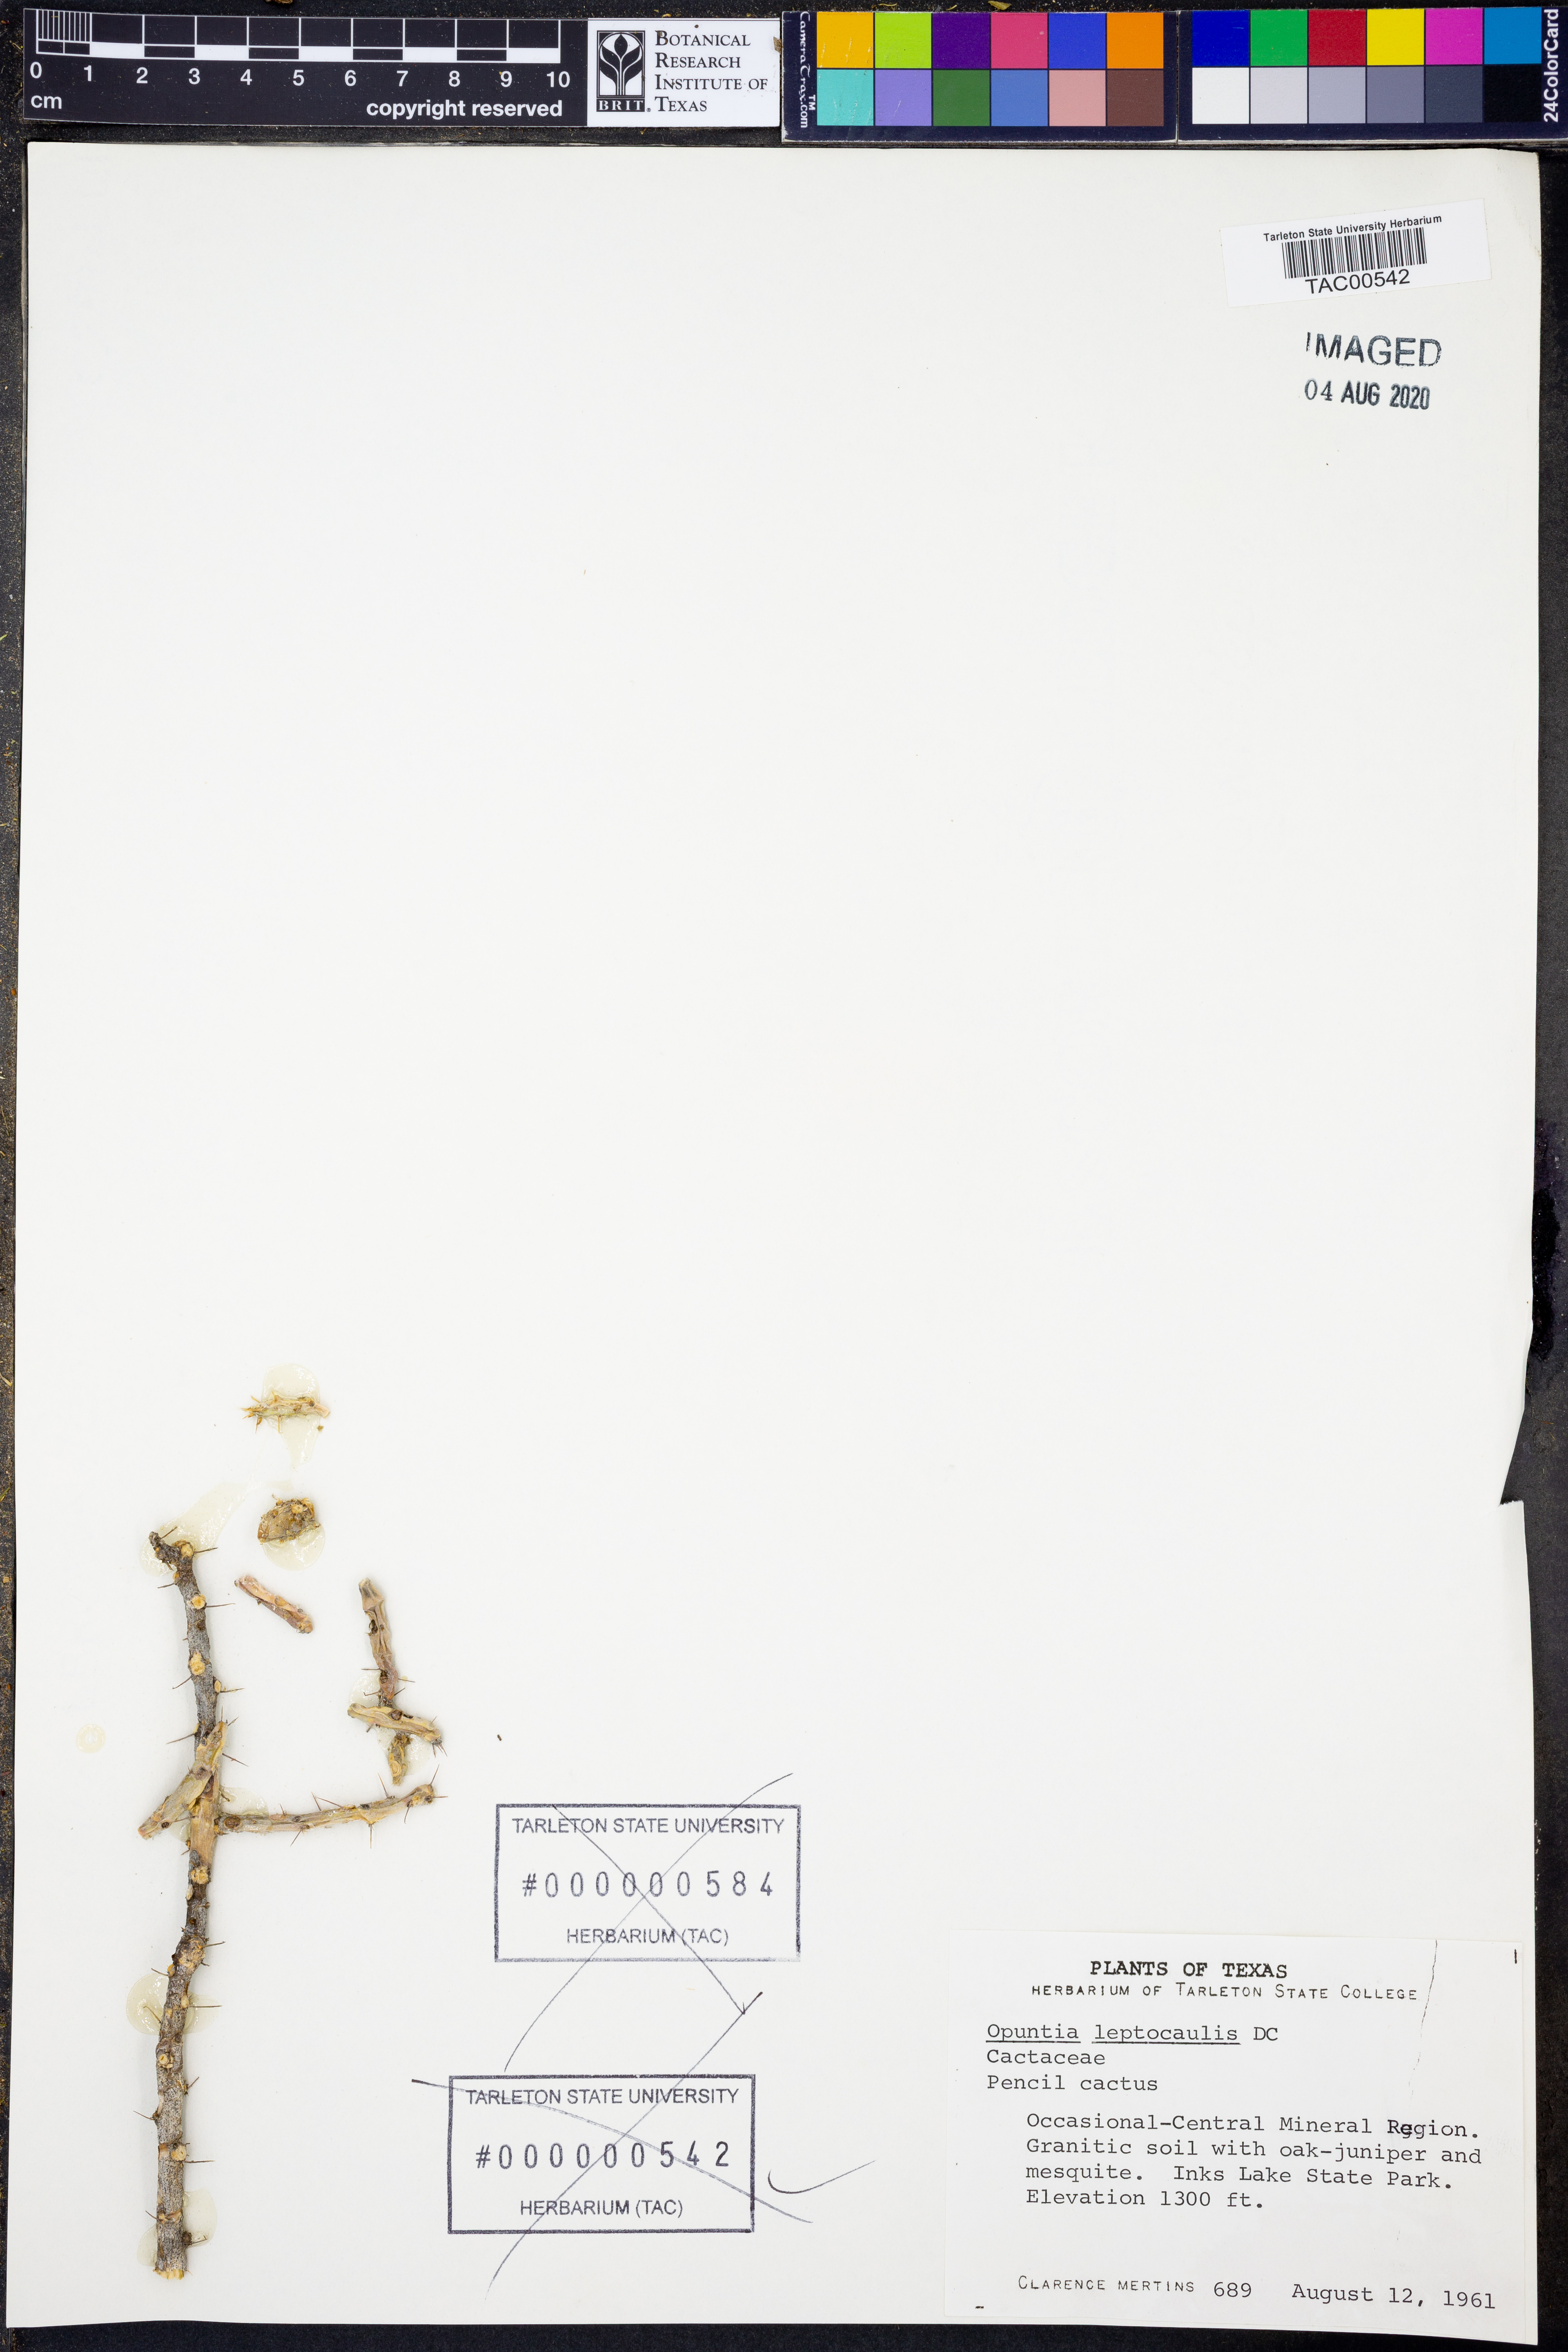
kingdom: Plantae
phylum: Tracheophyta
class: Magnoliopsida
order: Caryophyllales
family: Cactaceae
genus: Cylindropuntia
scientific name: Cylindropuntia leptocaulis
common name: Christmas cactus
